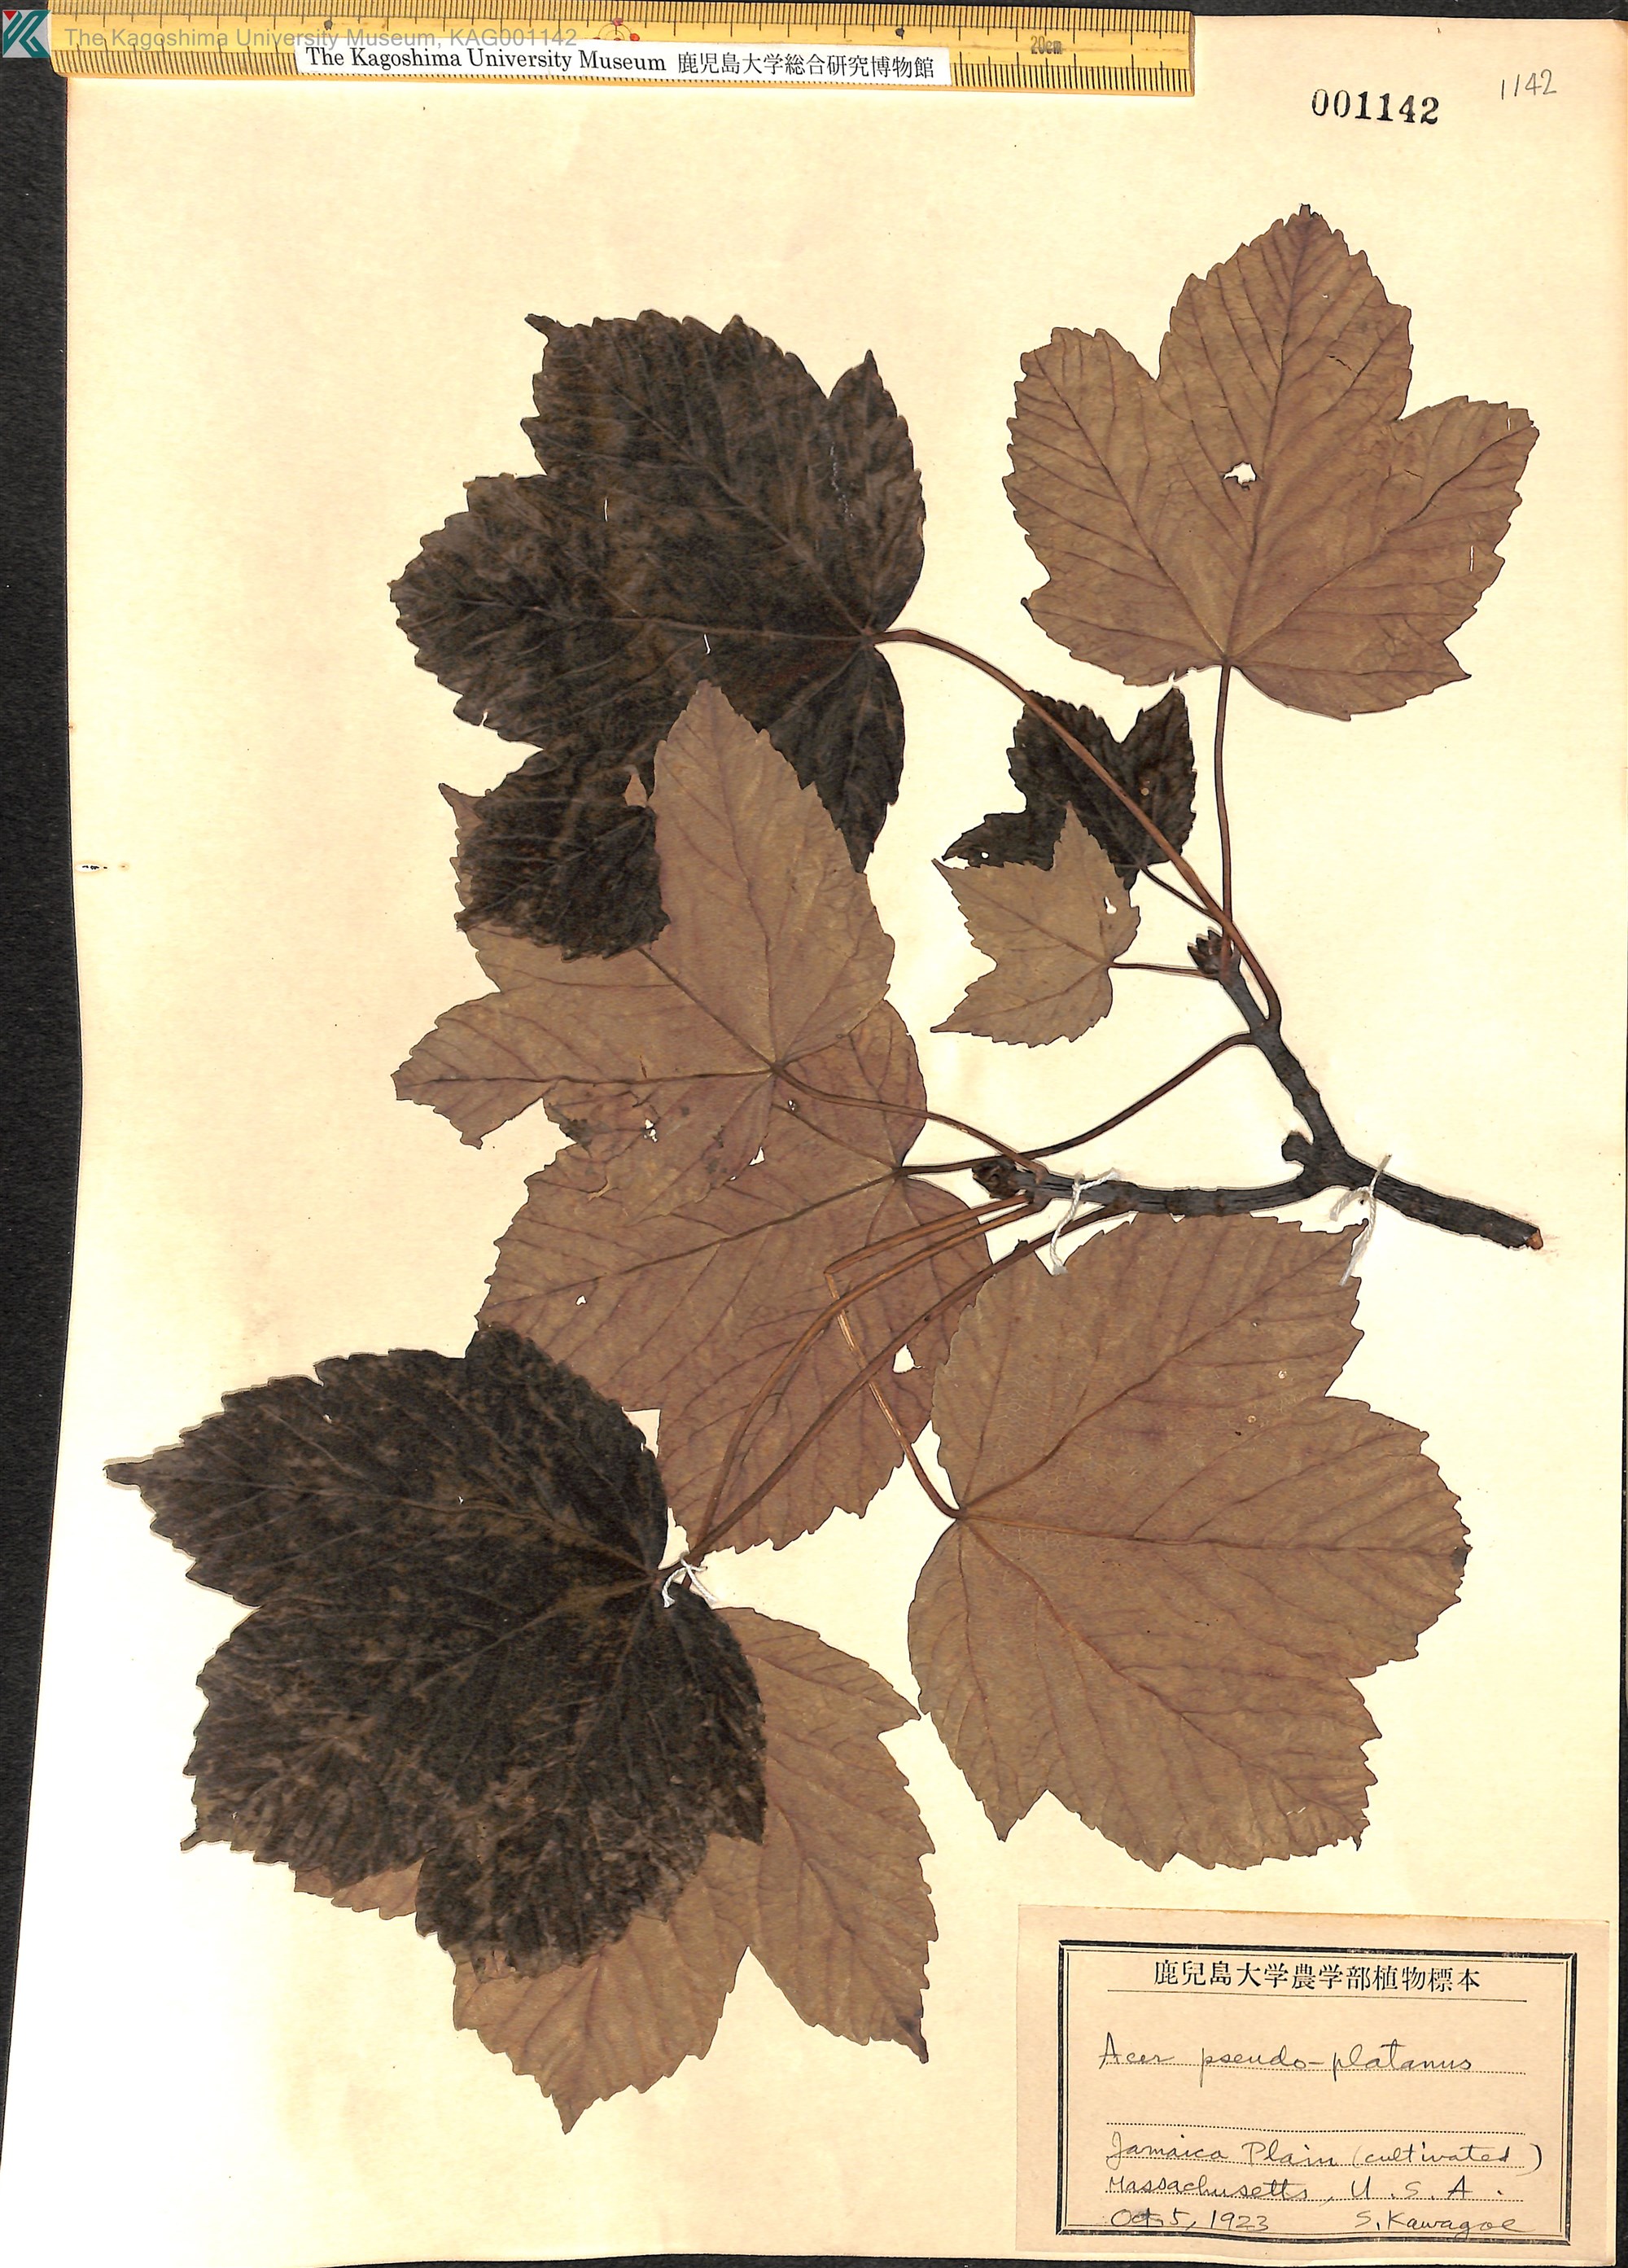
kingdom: Plantae
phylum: Tracheophyta
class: Magnoliopsida
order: Sapindales
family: Sapindaceae
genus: Acer
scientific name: Acer pseudoplatanus
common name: Sycamore
